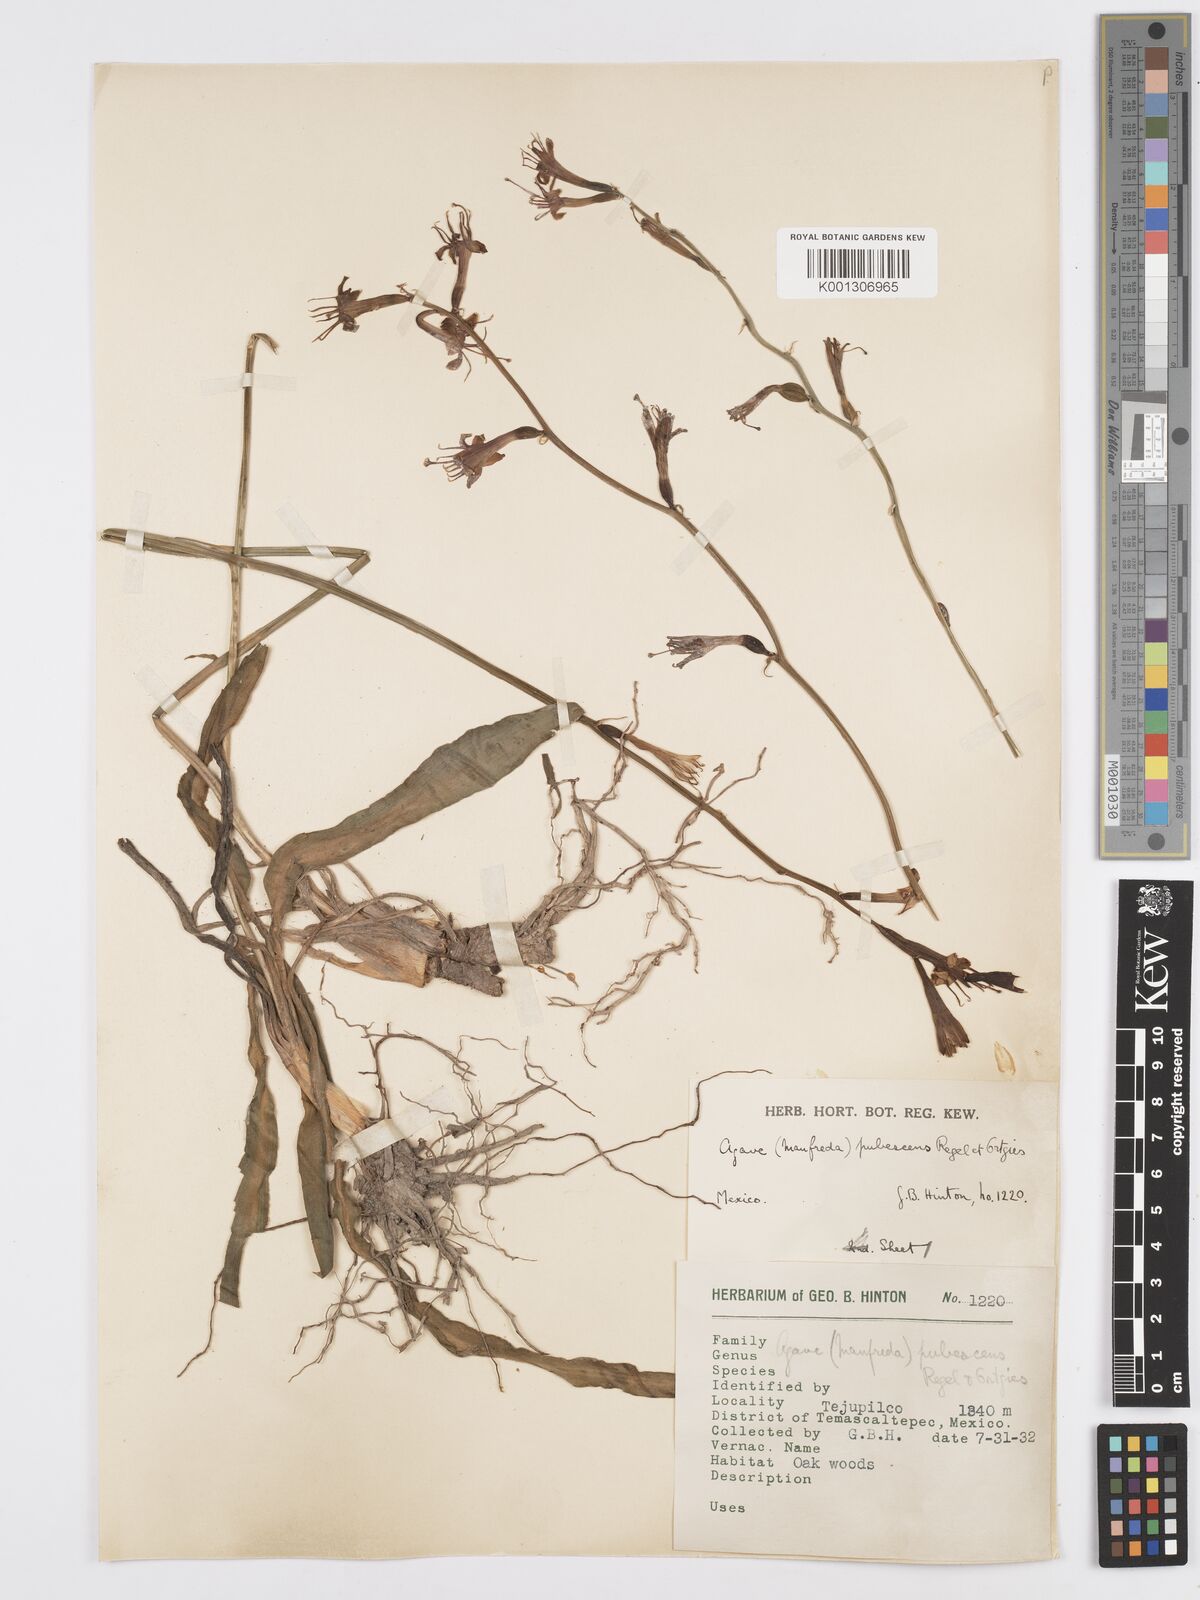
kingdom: Plantae
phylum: Tracheophyta
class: Liliopsida
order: Asparagales
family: Asparagaceae
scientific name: Asparagaceae
